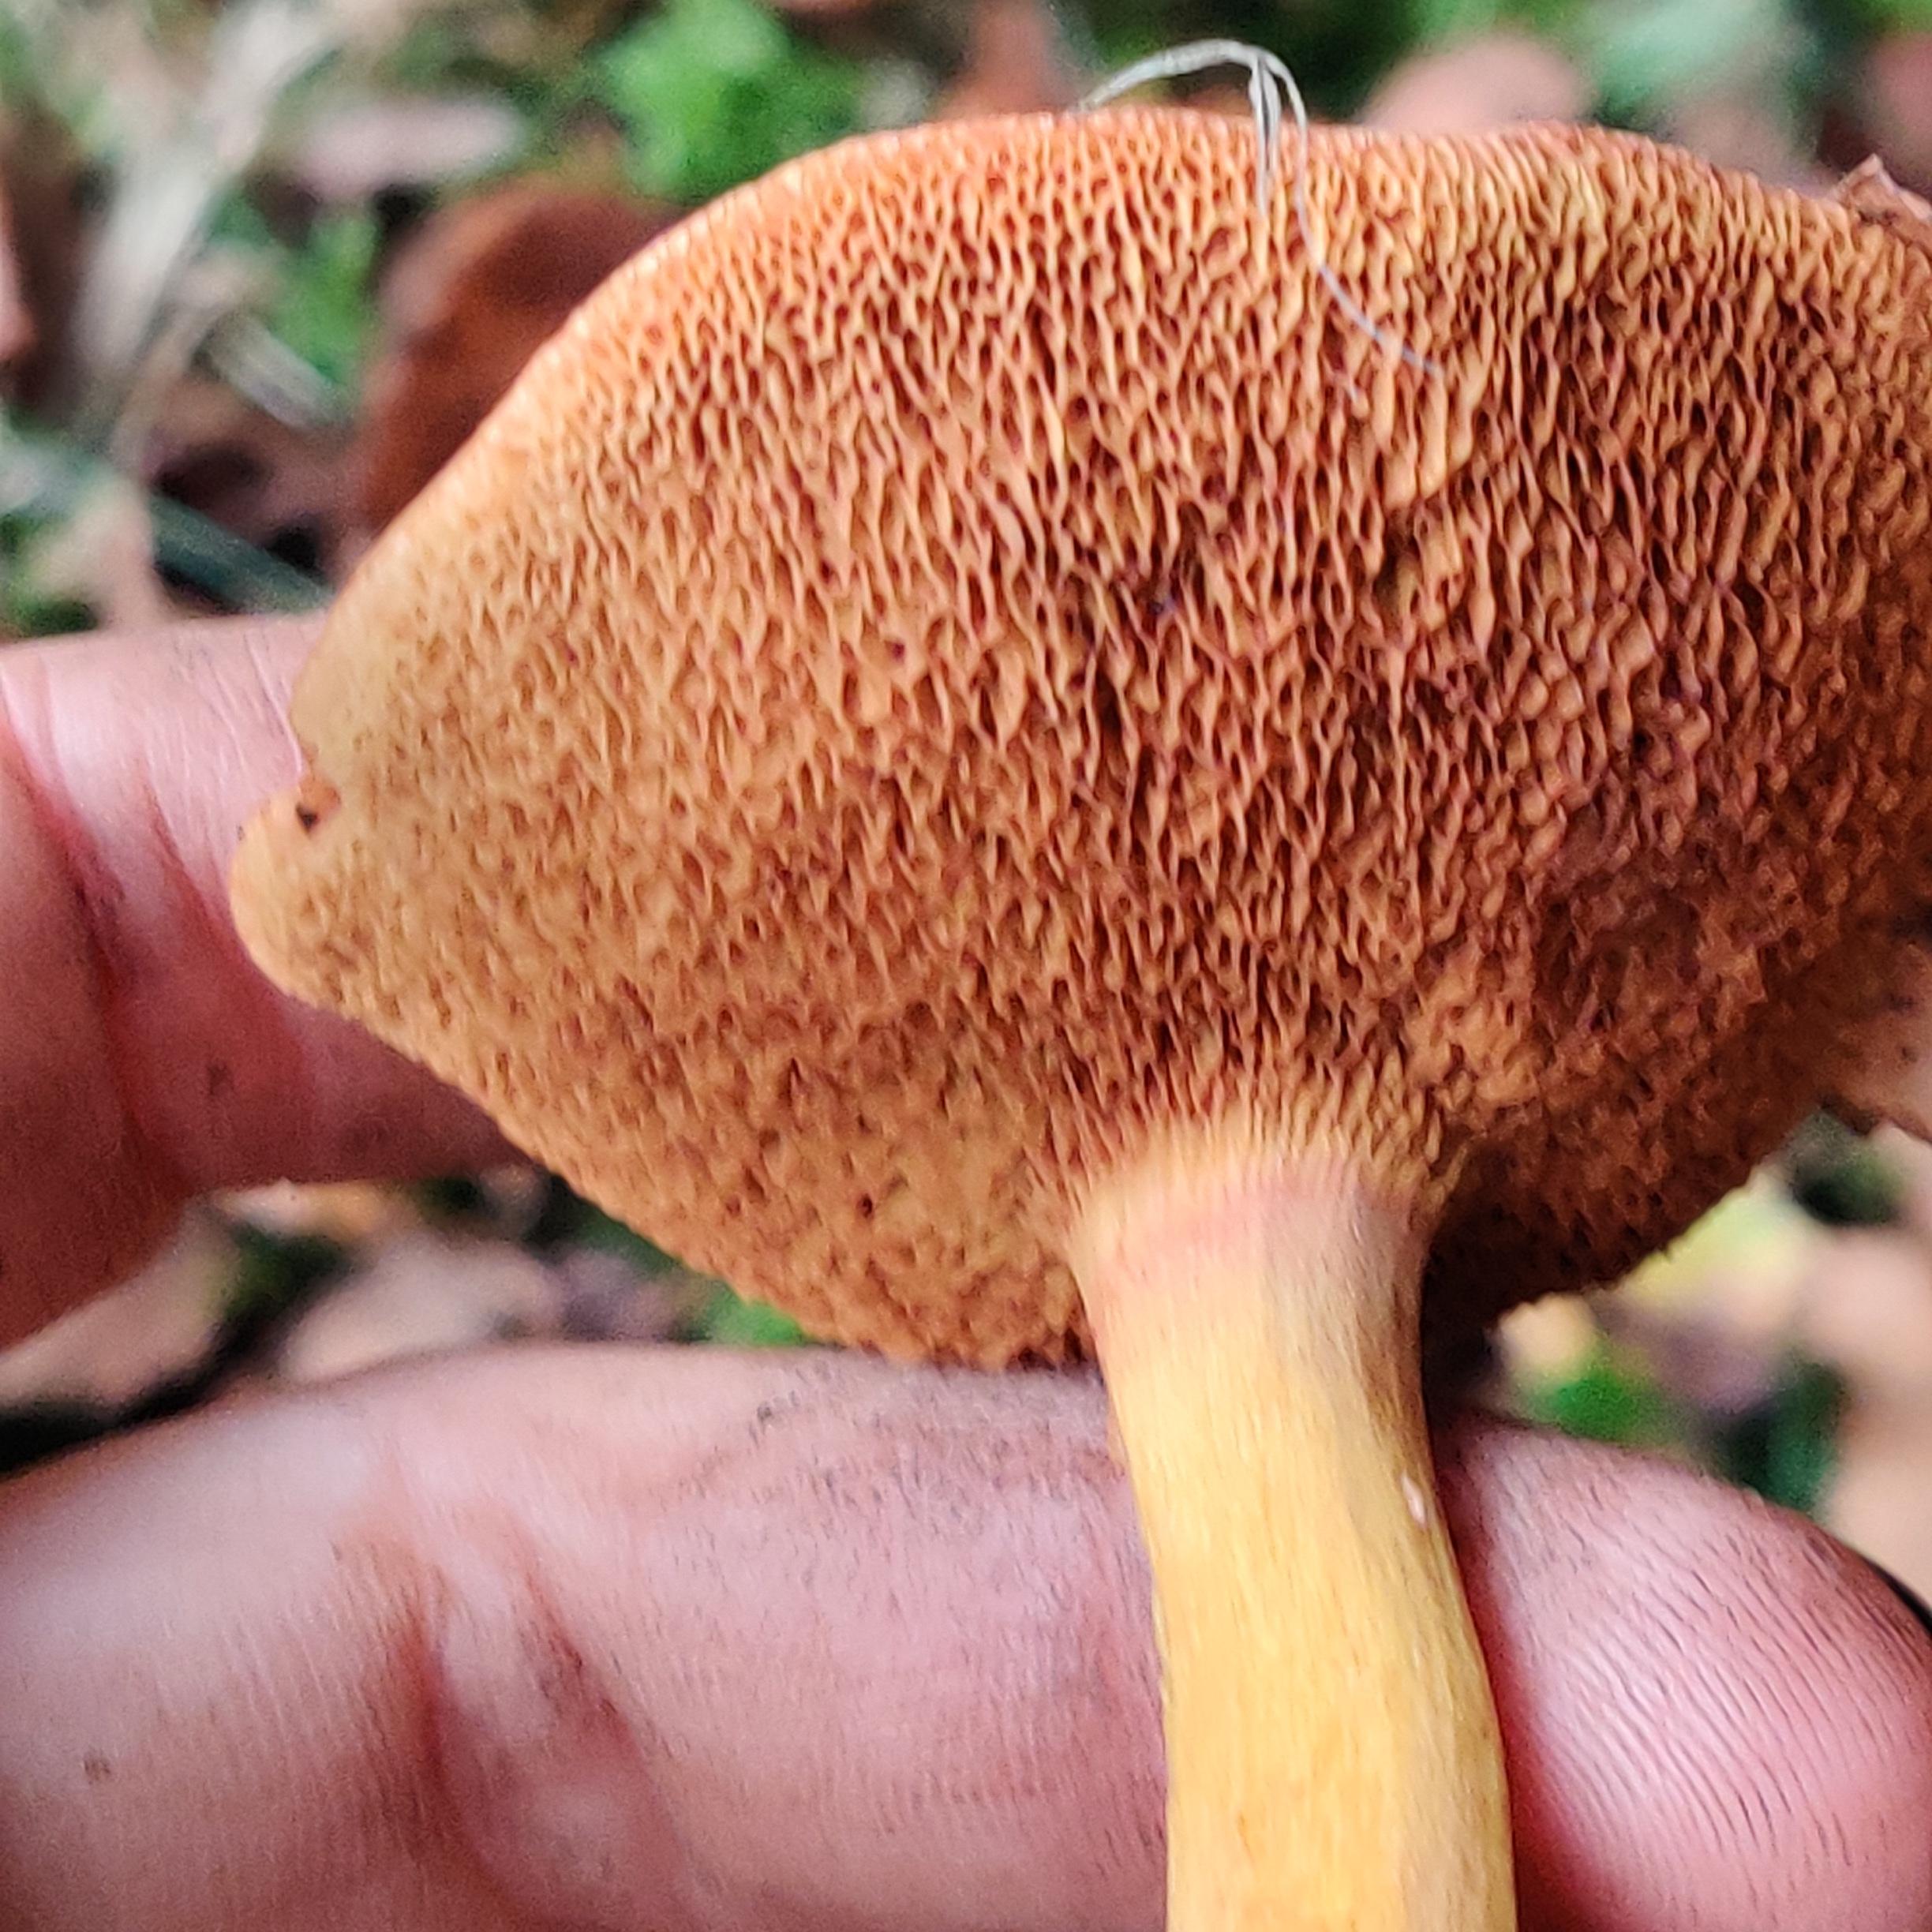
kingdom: Fungi
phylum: Basidiomycota
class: Agaricomycetes
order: Boletales
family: Boletaceae
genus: Chalciporus
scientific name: Chalciporus piperatus
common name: peberrørhat
